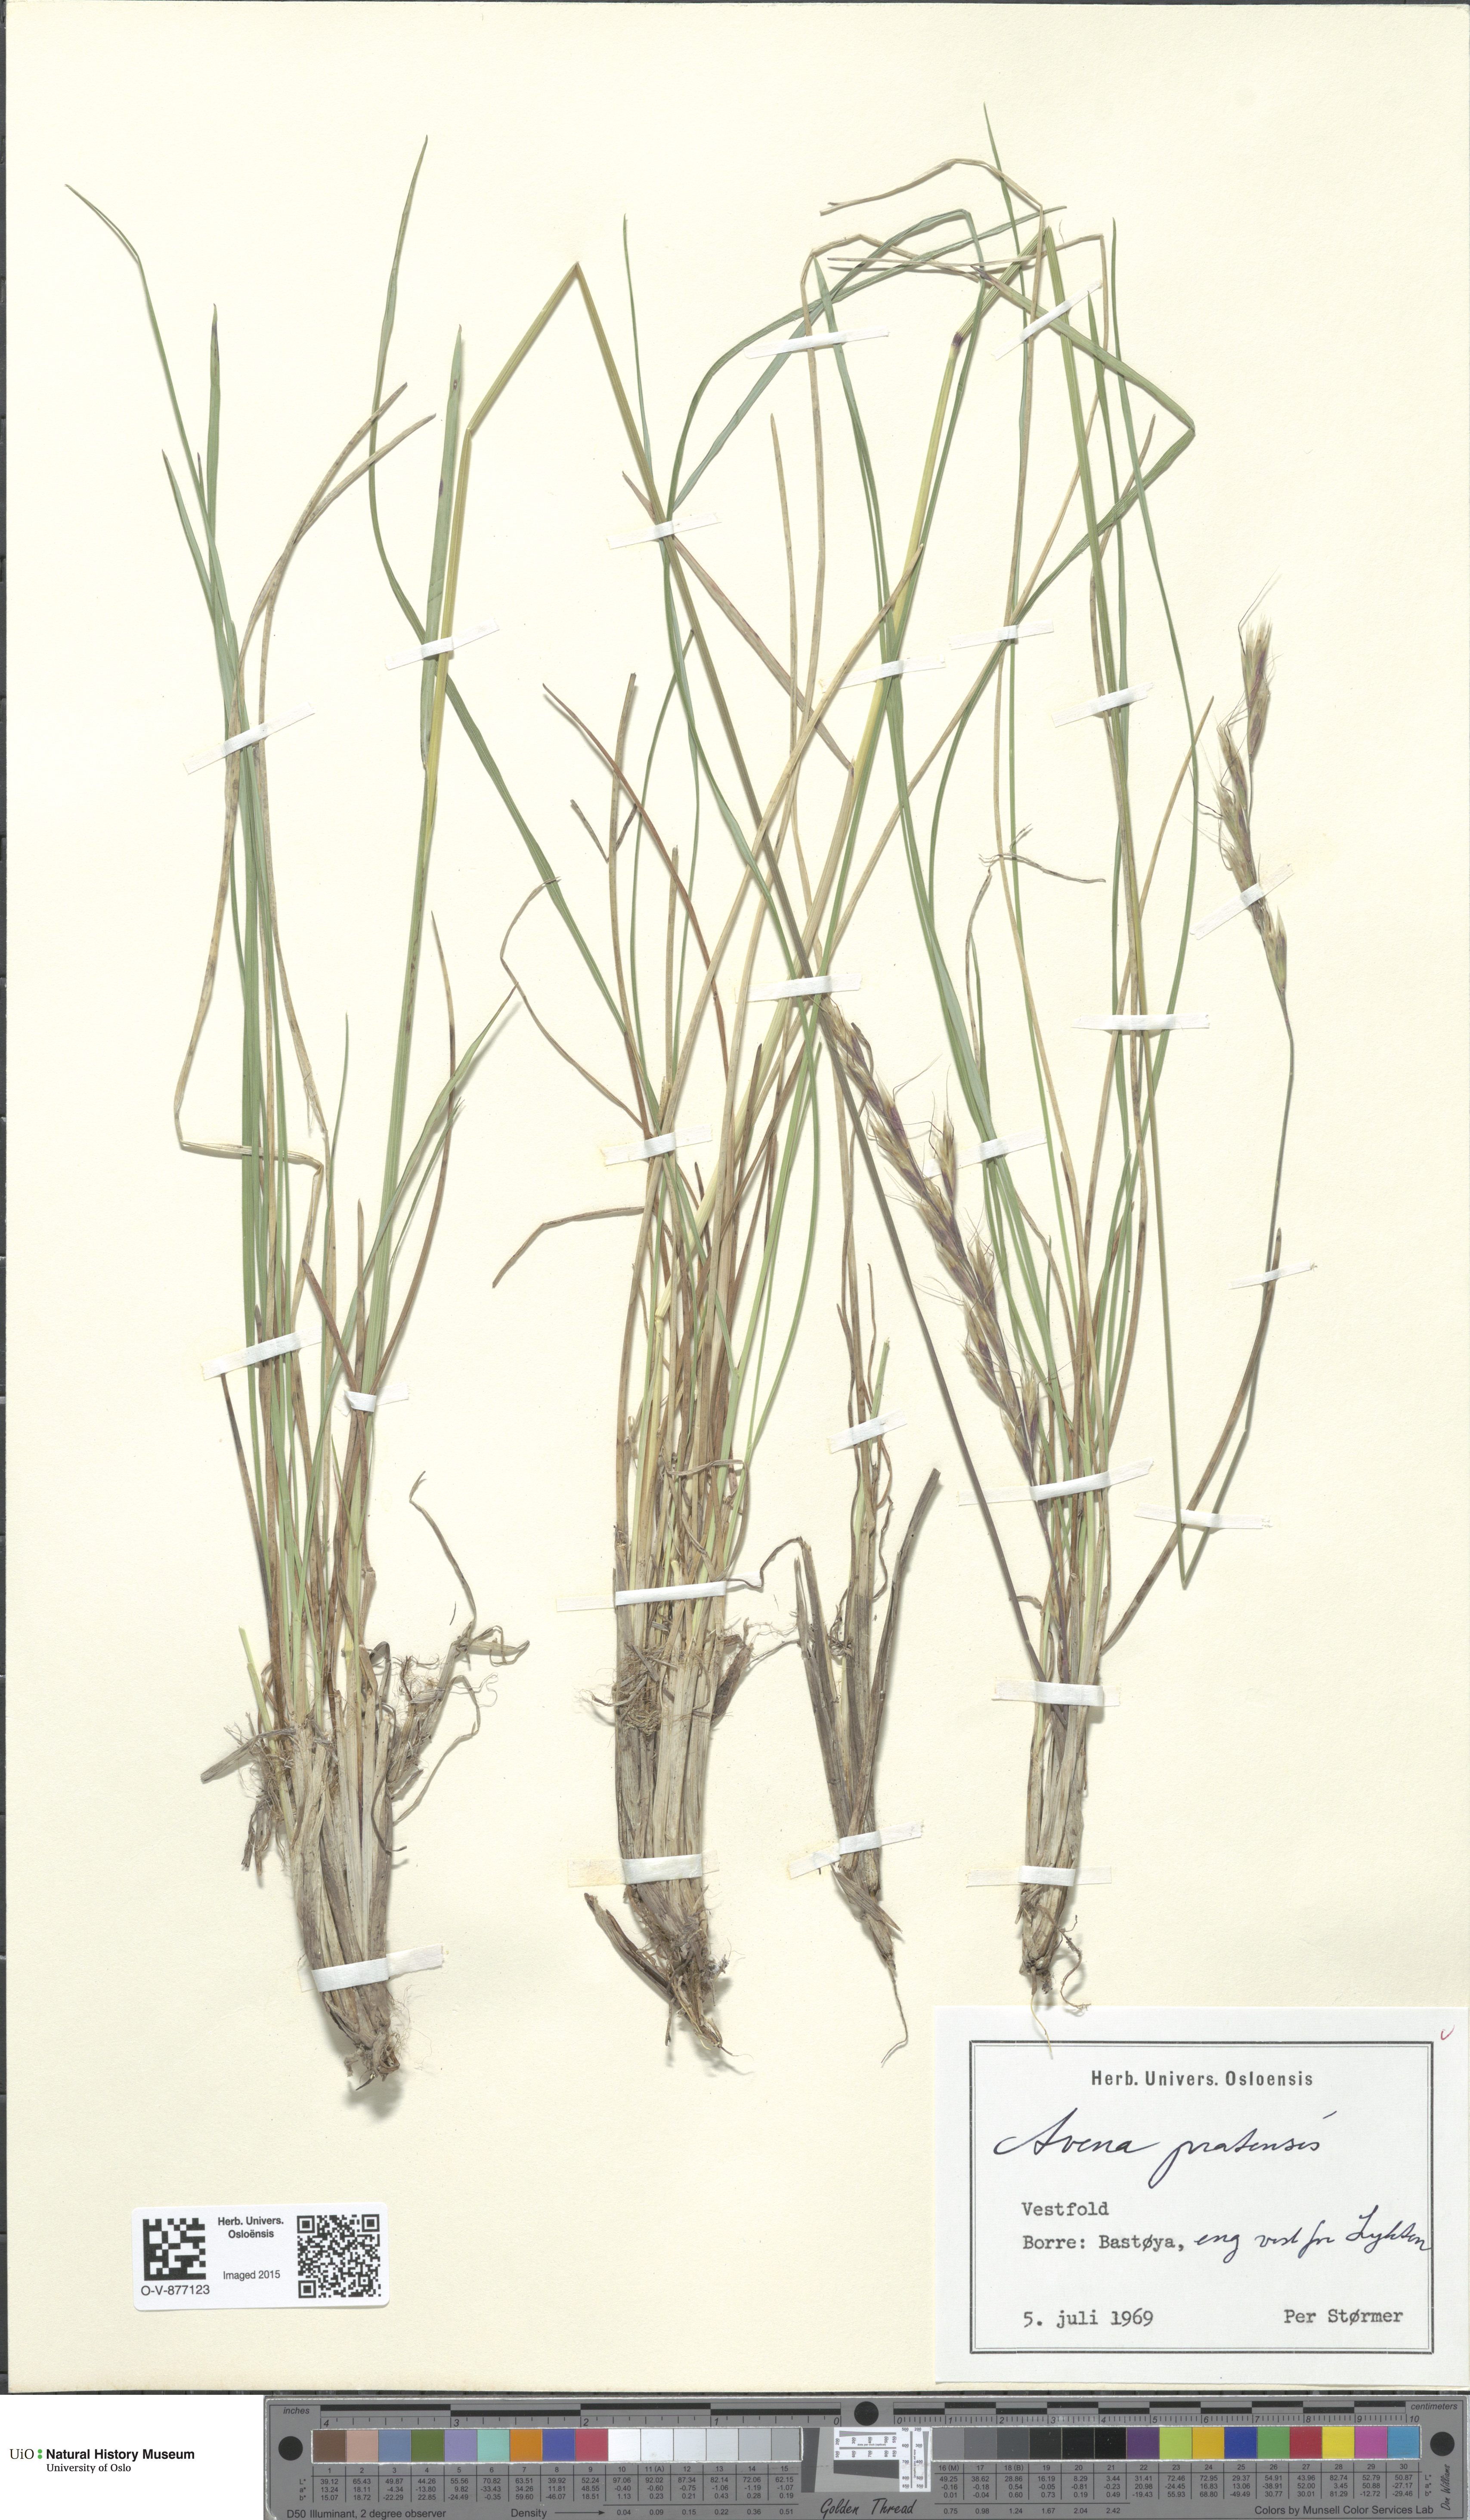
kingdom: Plantae
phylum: Tracheophyta
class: Liliopsida
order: Poales
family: Poaceae
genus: Helictochloa
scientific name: Helictochloa pratensis
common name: Meadow oat grass
